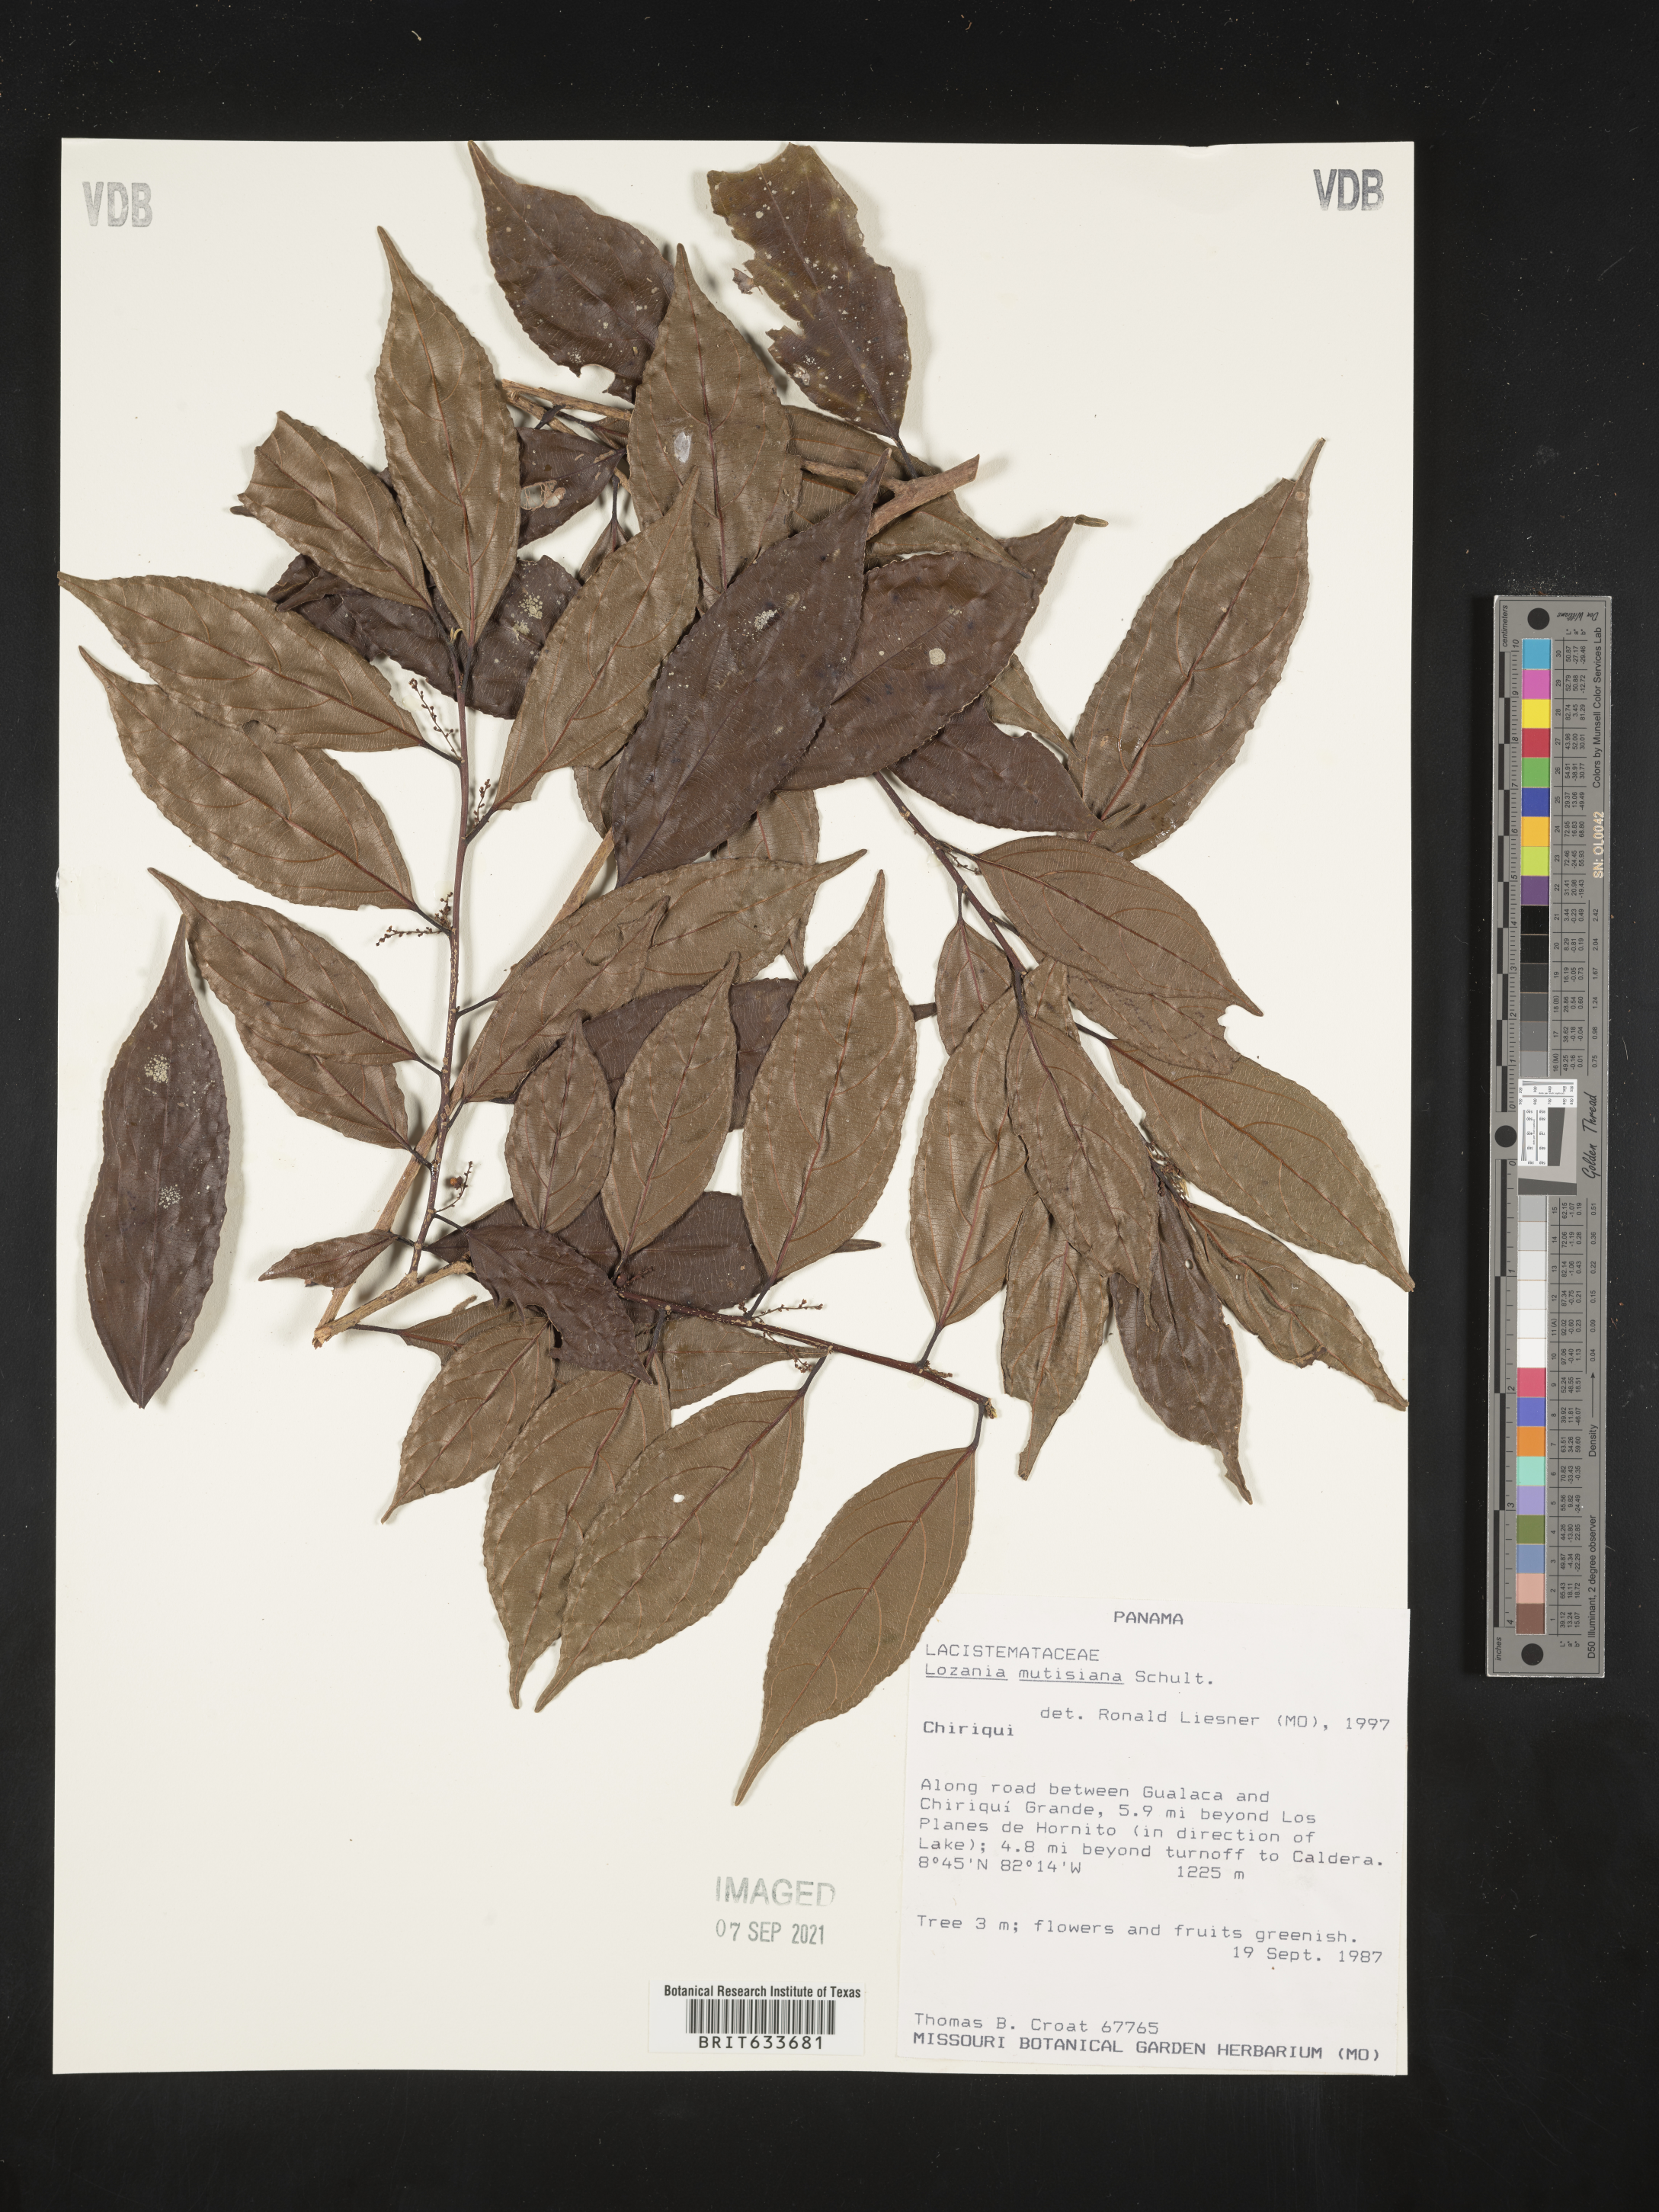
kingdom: Plantae
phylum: Tracheophyta
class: Magnoliopsida
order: Malpighiales
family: Lacistemataceae
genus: Lozania
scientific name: Lozania
